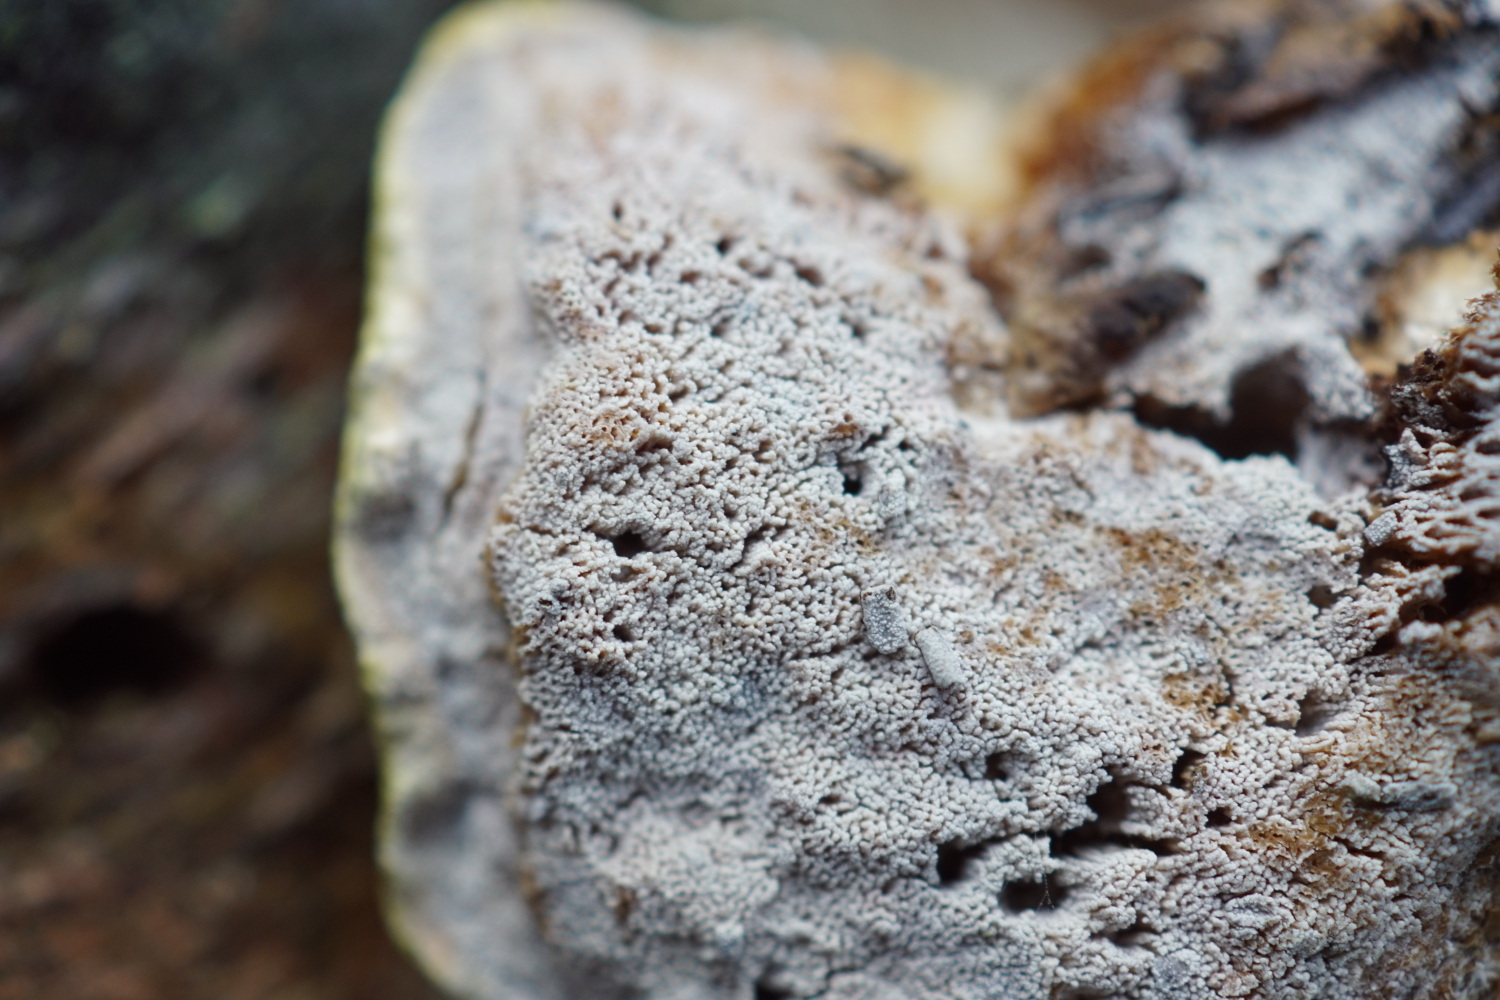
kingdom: Fungi
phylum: Basidiomycota
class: Agaricomycetes
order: Corticiales
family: Corticiaceae
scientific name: Corticiaceae
